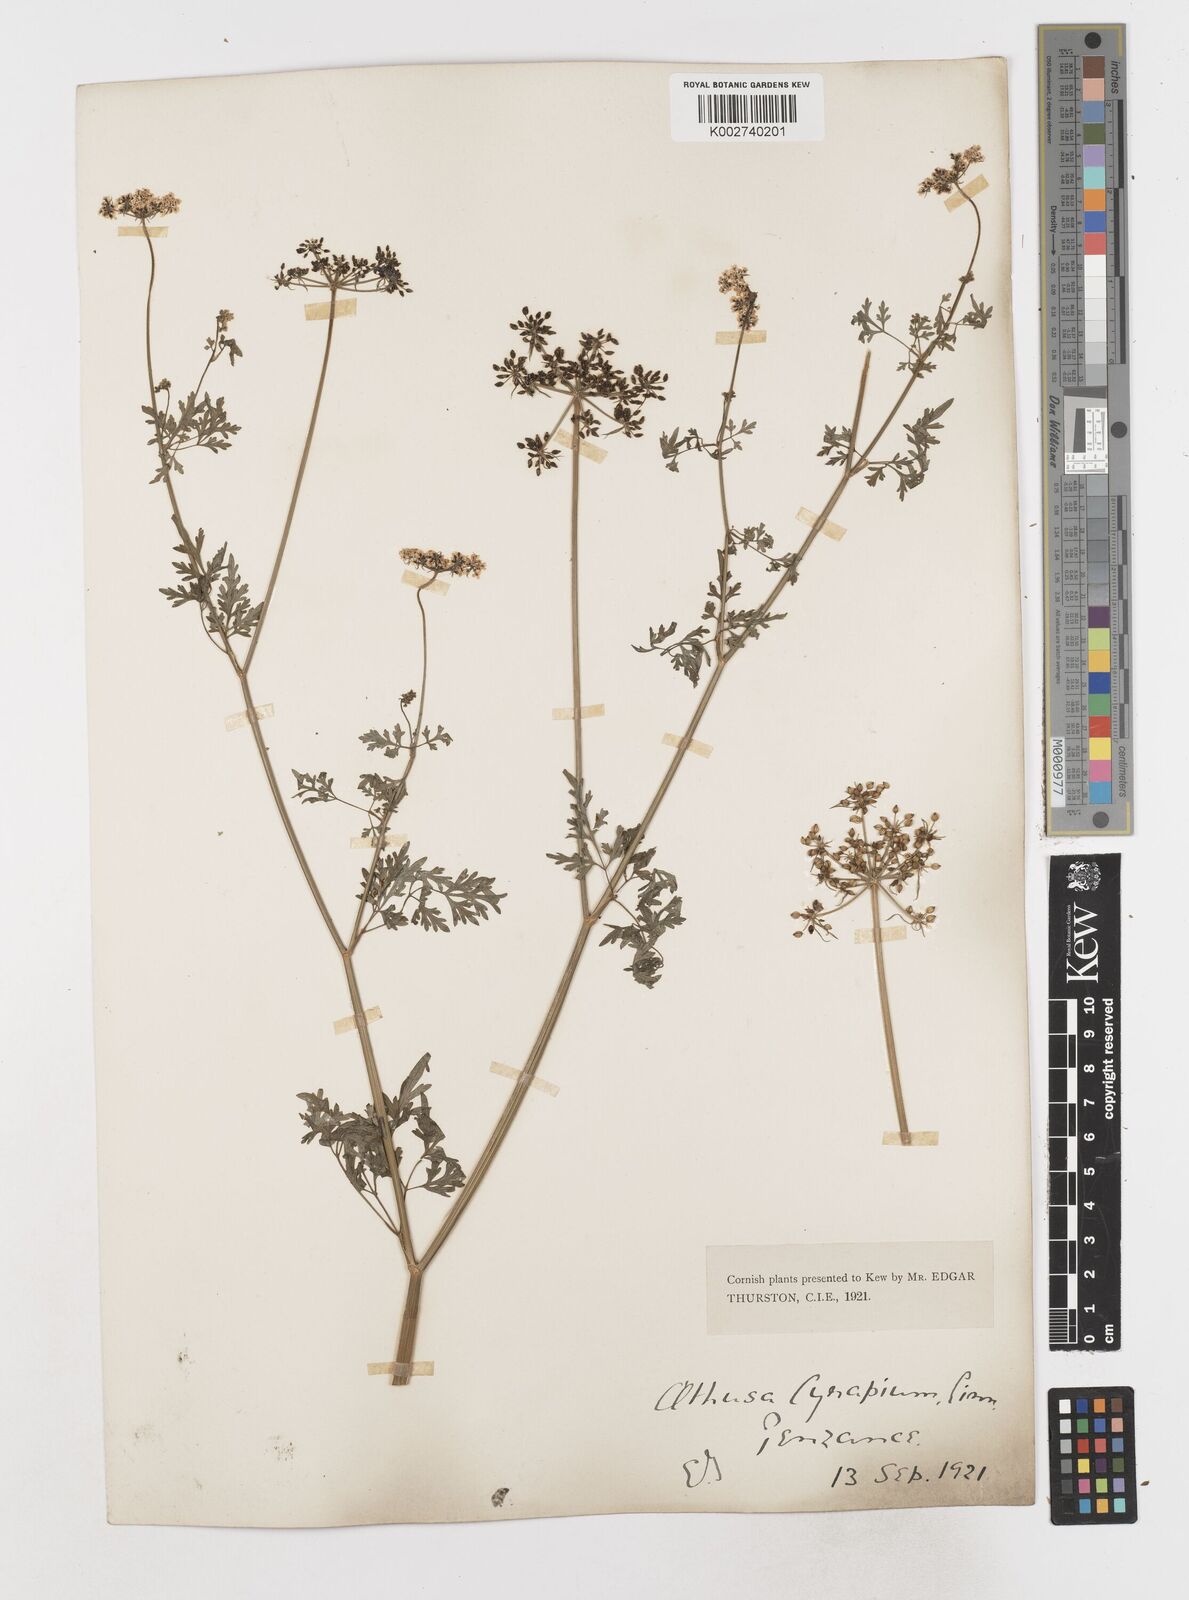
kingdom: Plantae
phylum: Tracheophyta
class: Magnoliopsida
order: Apiales
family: Apiaceae
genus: Aethusa
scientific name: Aethusa cynapium
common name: Fool's parsley
